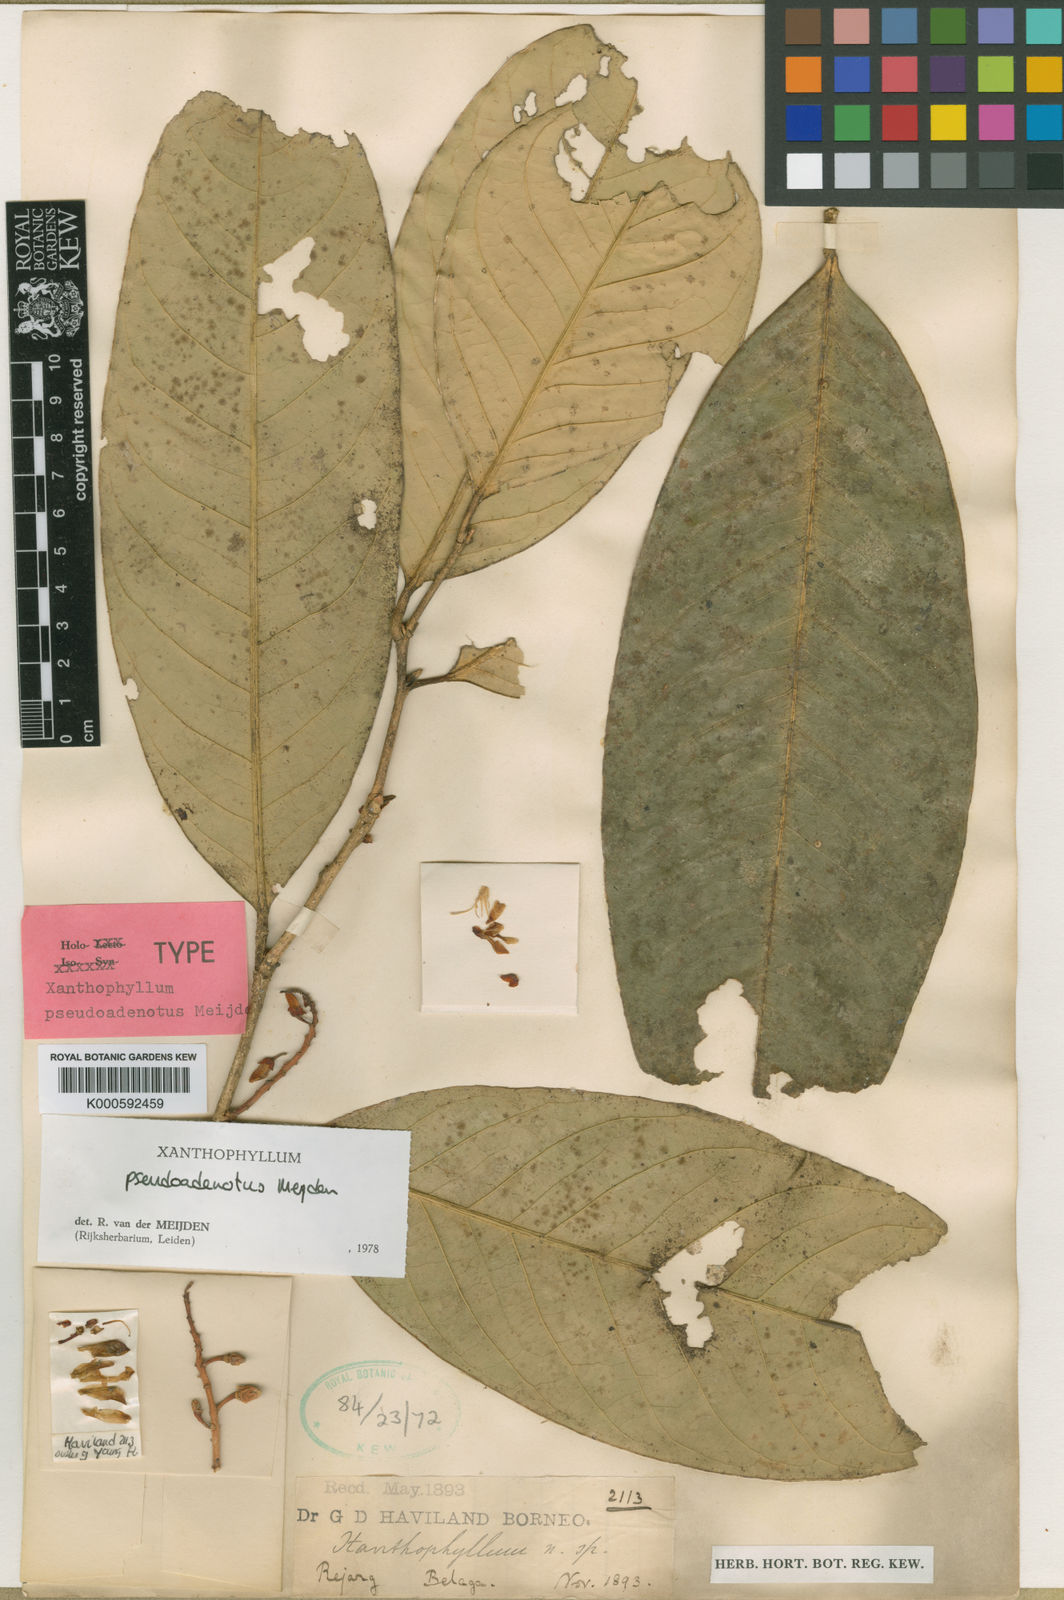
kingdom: Plantae
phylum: Tracheophyta
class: Magnoliopsida
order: Fabales
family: Polygalaceae
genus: Xanthophyllum
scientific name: Xanthophyllum pseudoadenotus
